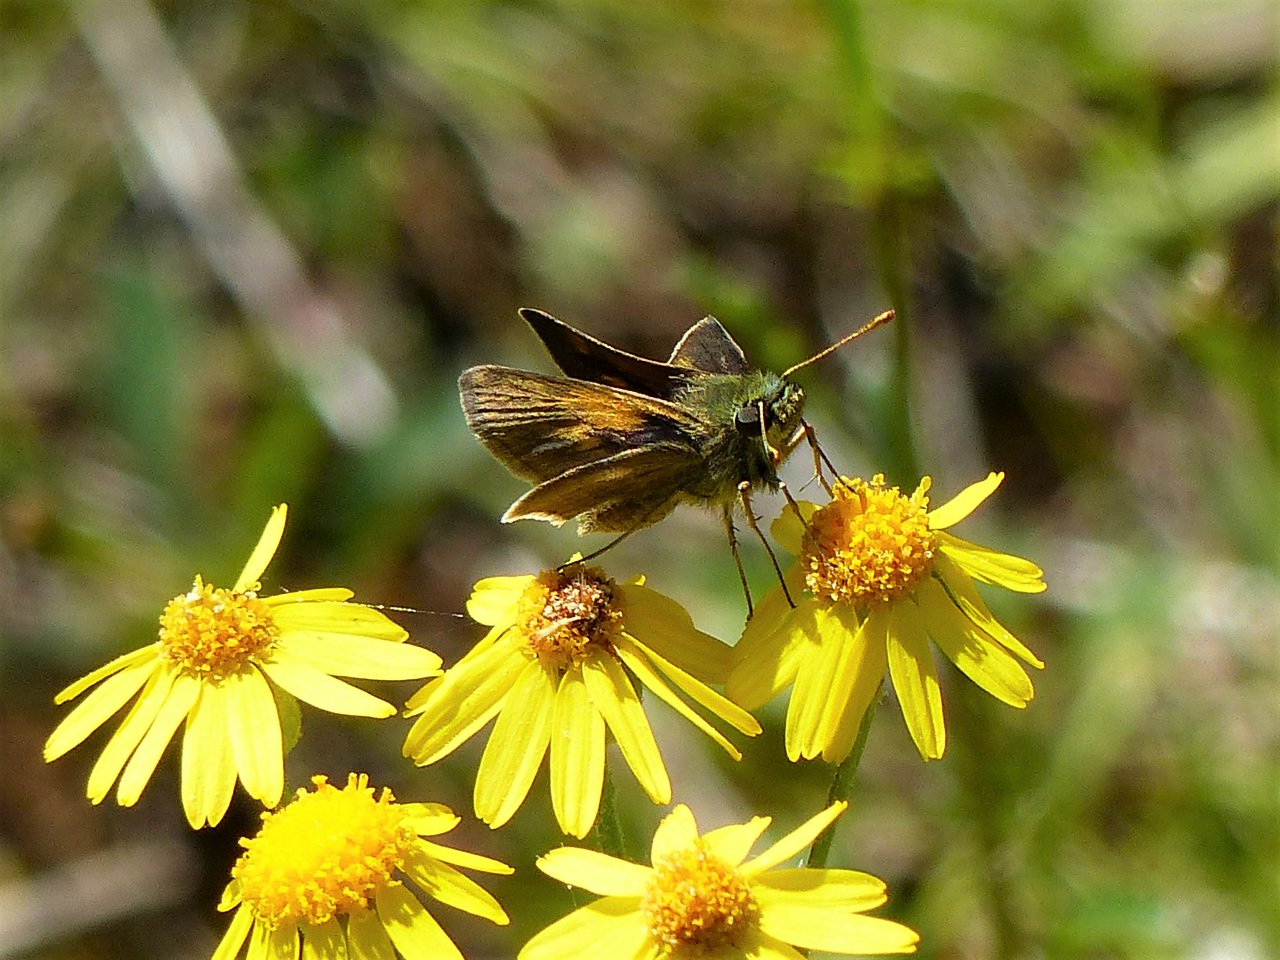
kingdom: Animalia
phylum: Arthropoda
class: Insecta
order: Lepidoptera
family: Hesperiidae
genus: Polites
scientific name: Polites themistocles
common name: Tawny-edged Skipper
